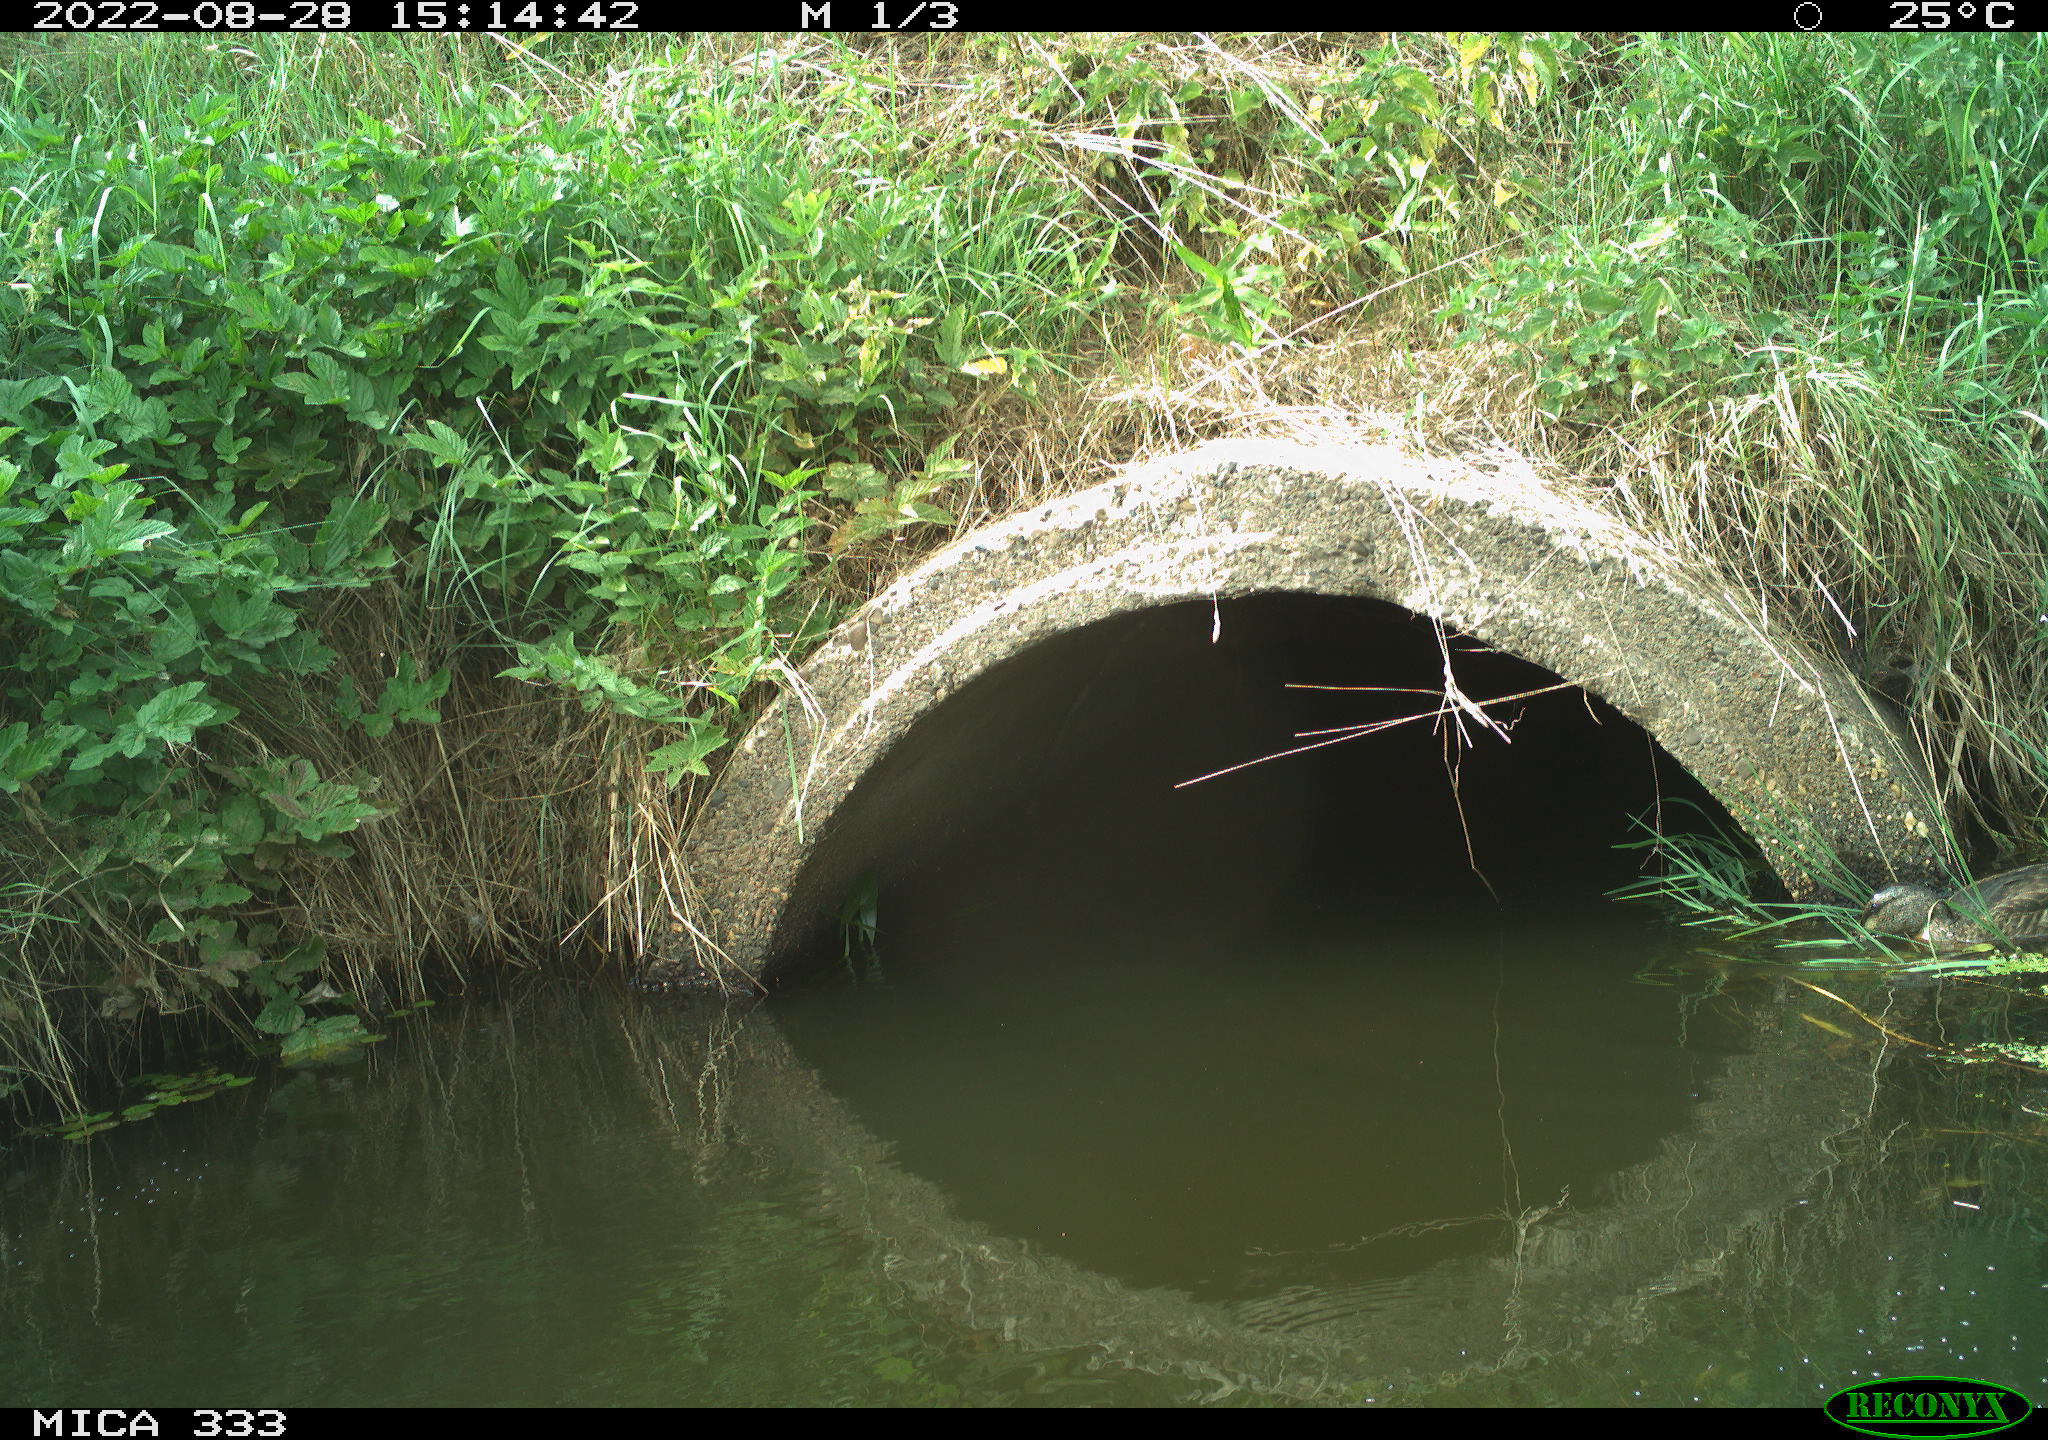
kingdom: Animalia
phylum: Chordata
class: Aves
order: Anseriformes
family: Anatidae
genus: Anas
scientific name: Anas platyrhynchos
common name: Mallard
